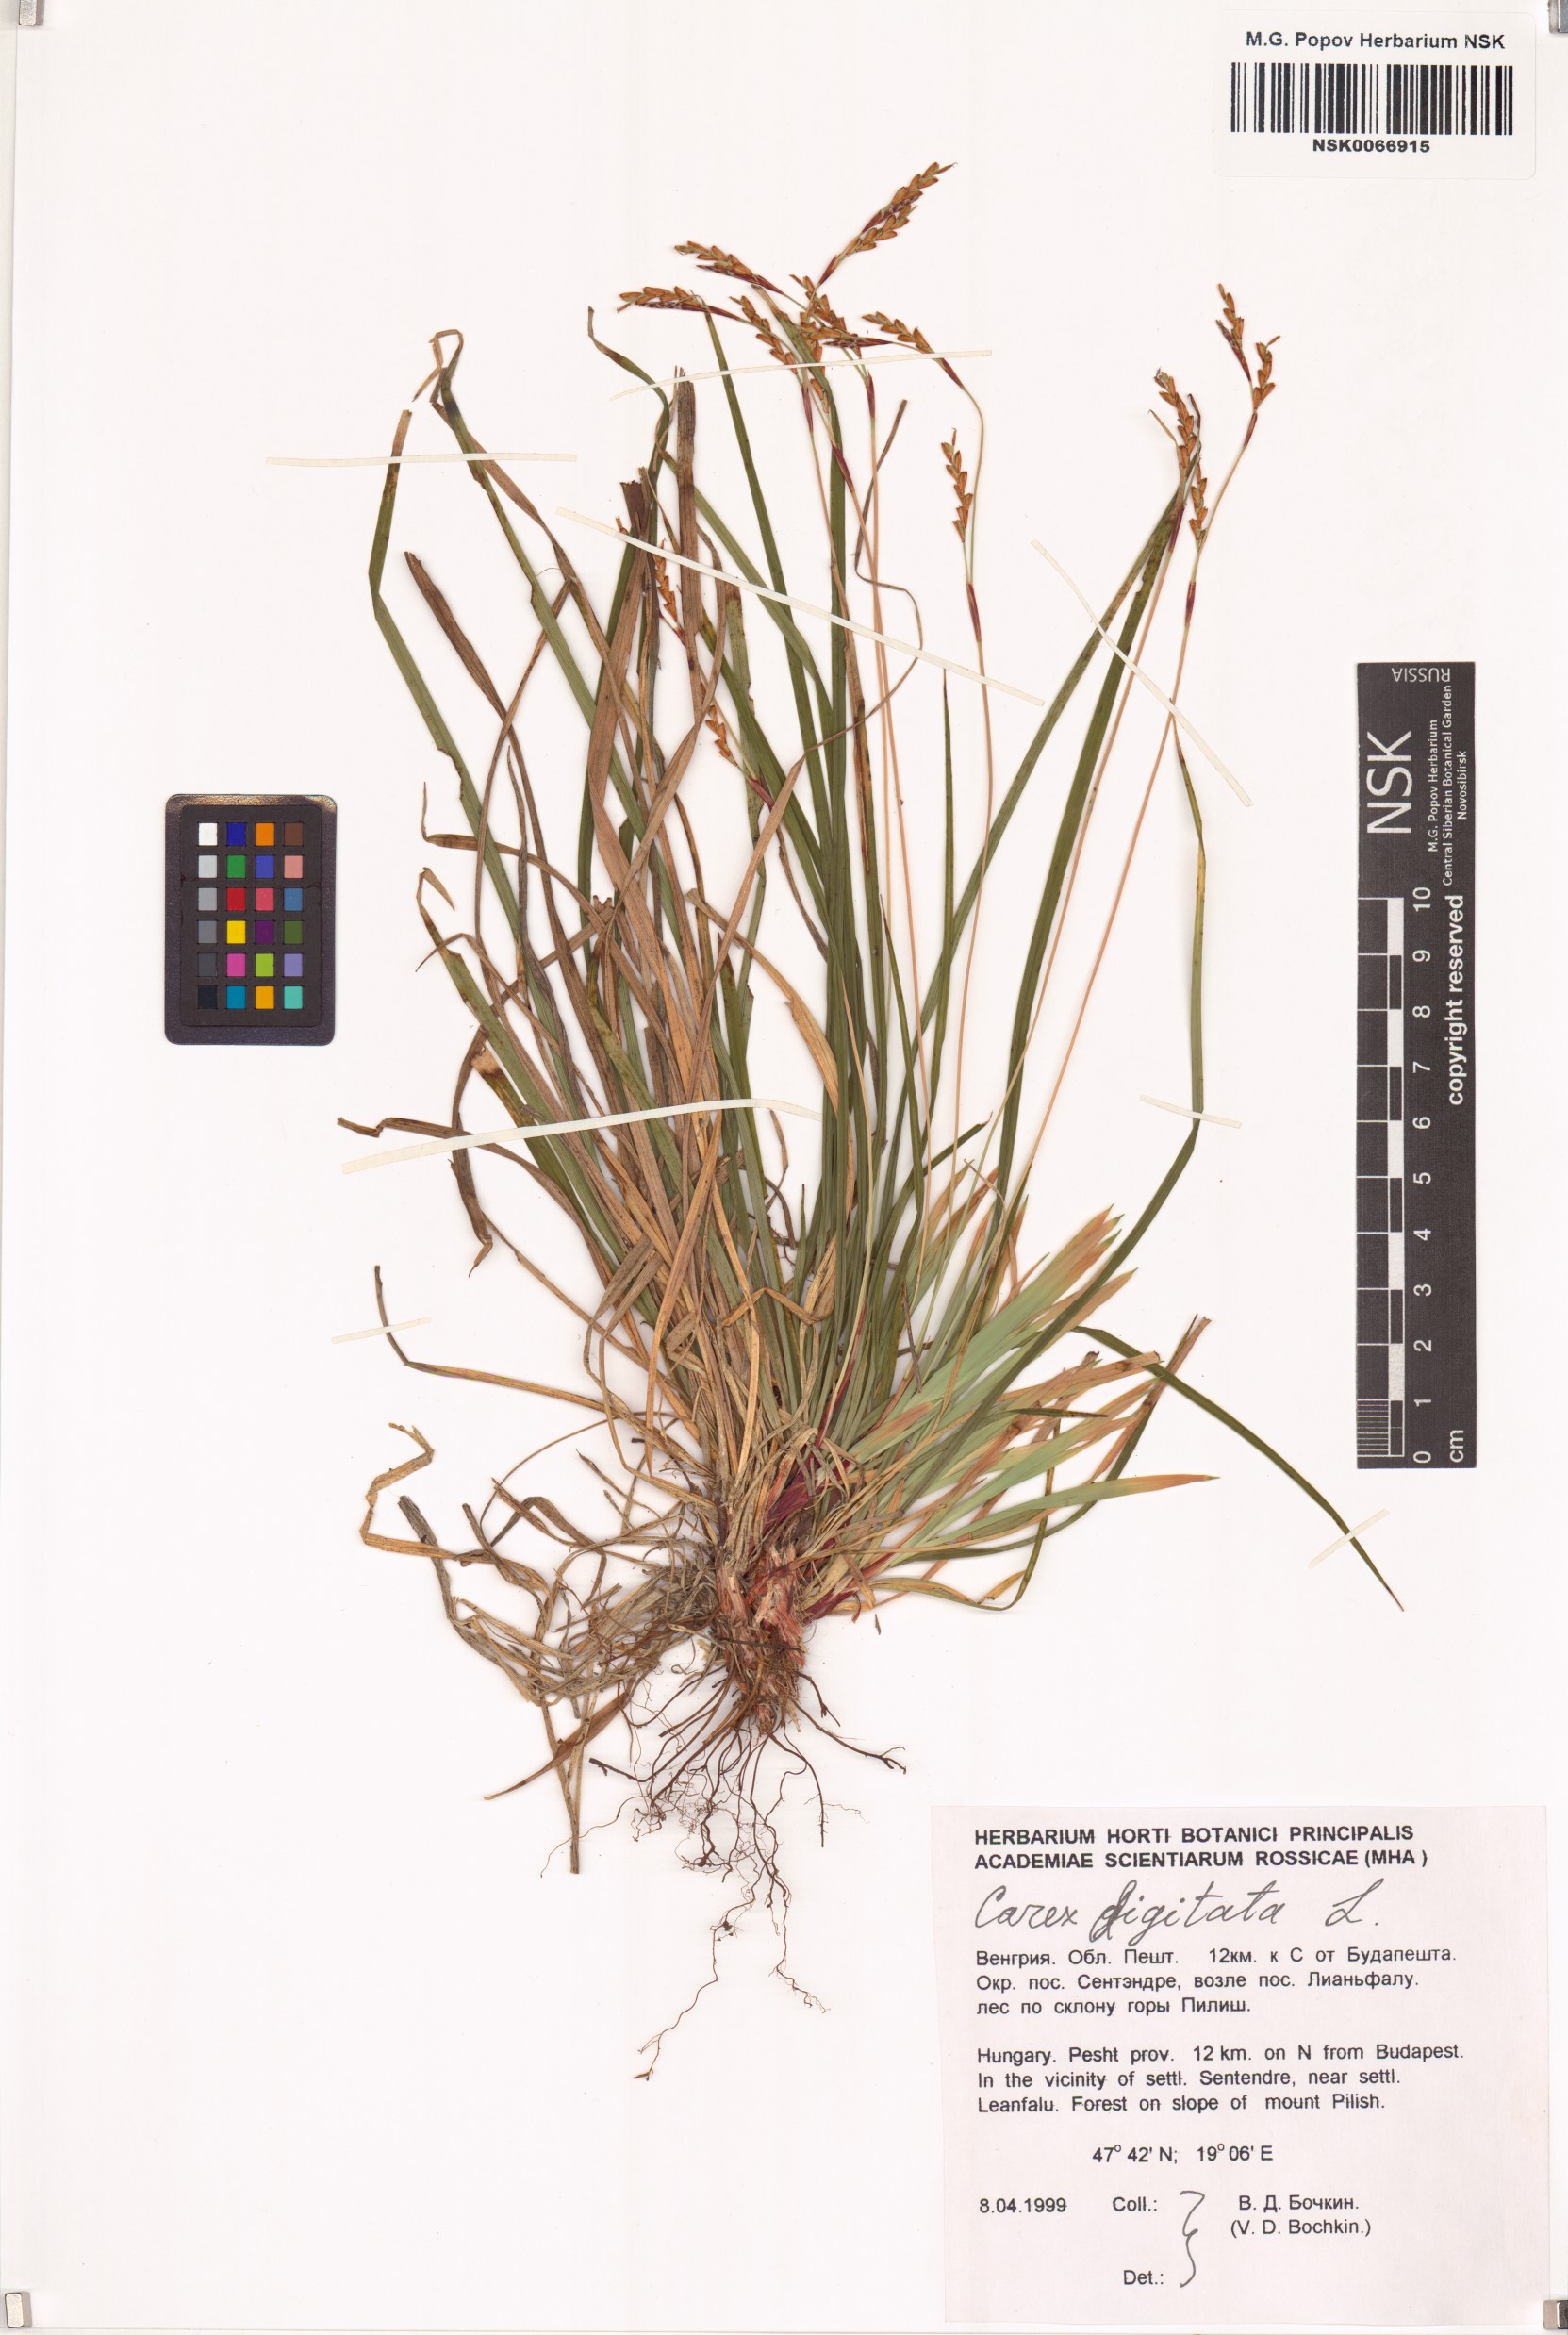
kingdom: Plantae
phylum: Tracheophyta
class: Liliopsida
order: Poales
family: Cyperaceae
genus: Carex
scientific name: Carex digitata
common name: Fingered sedge
